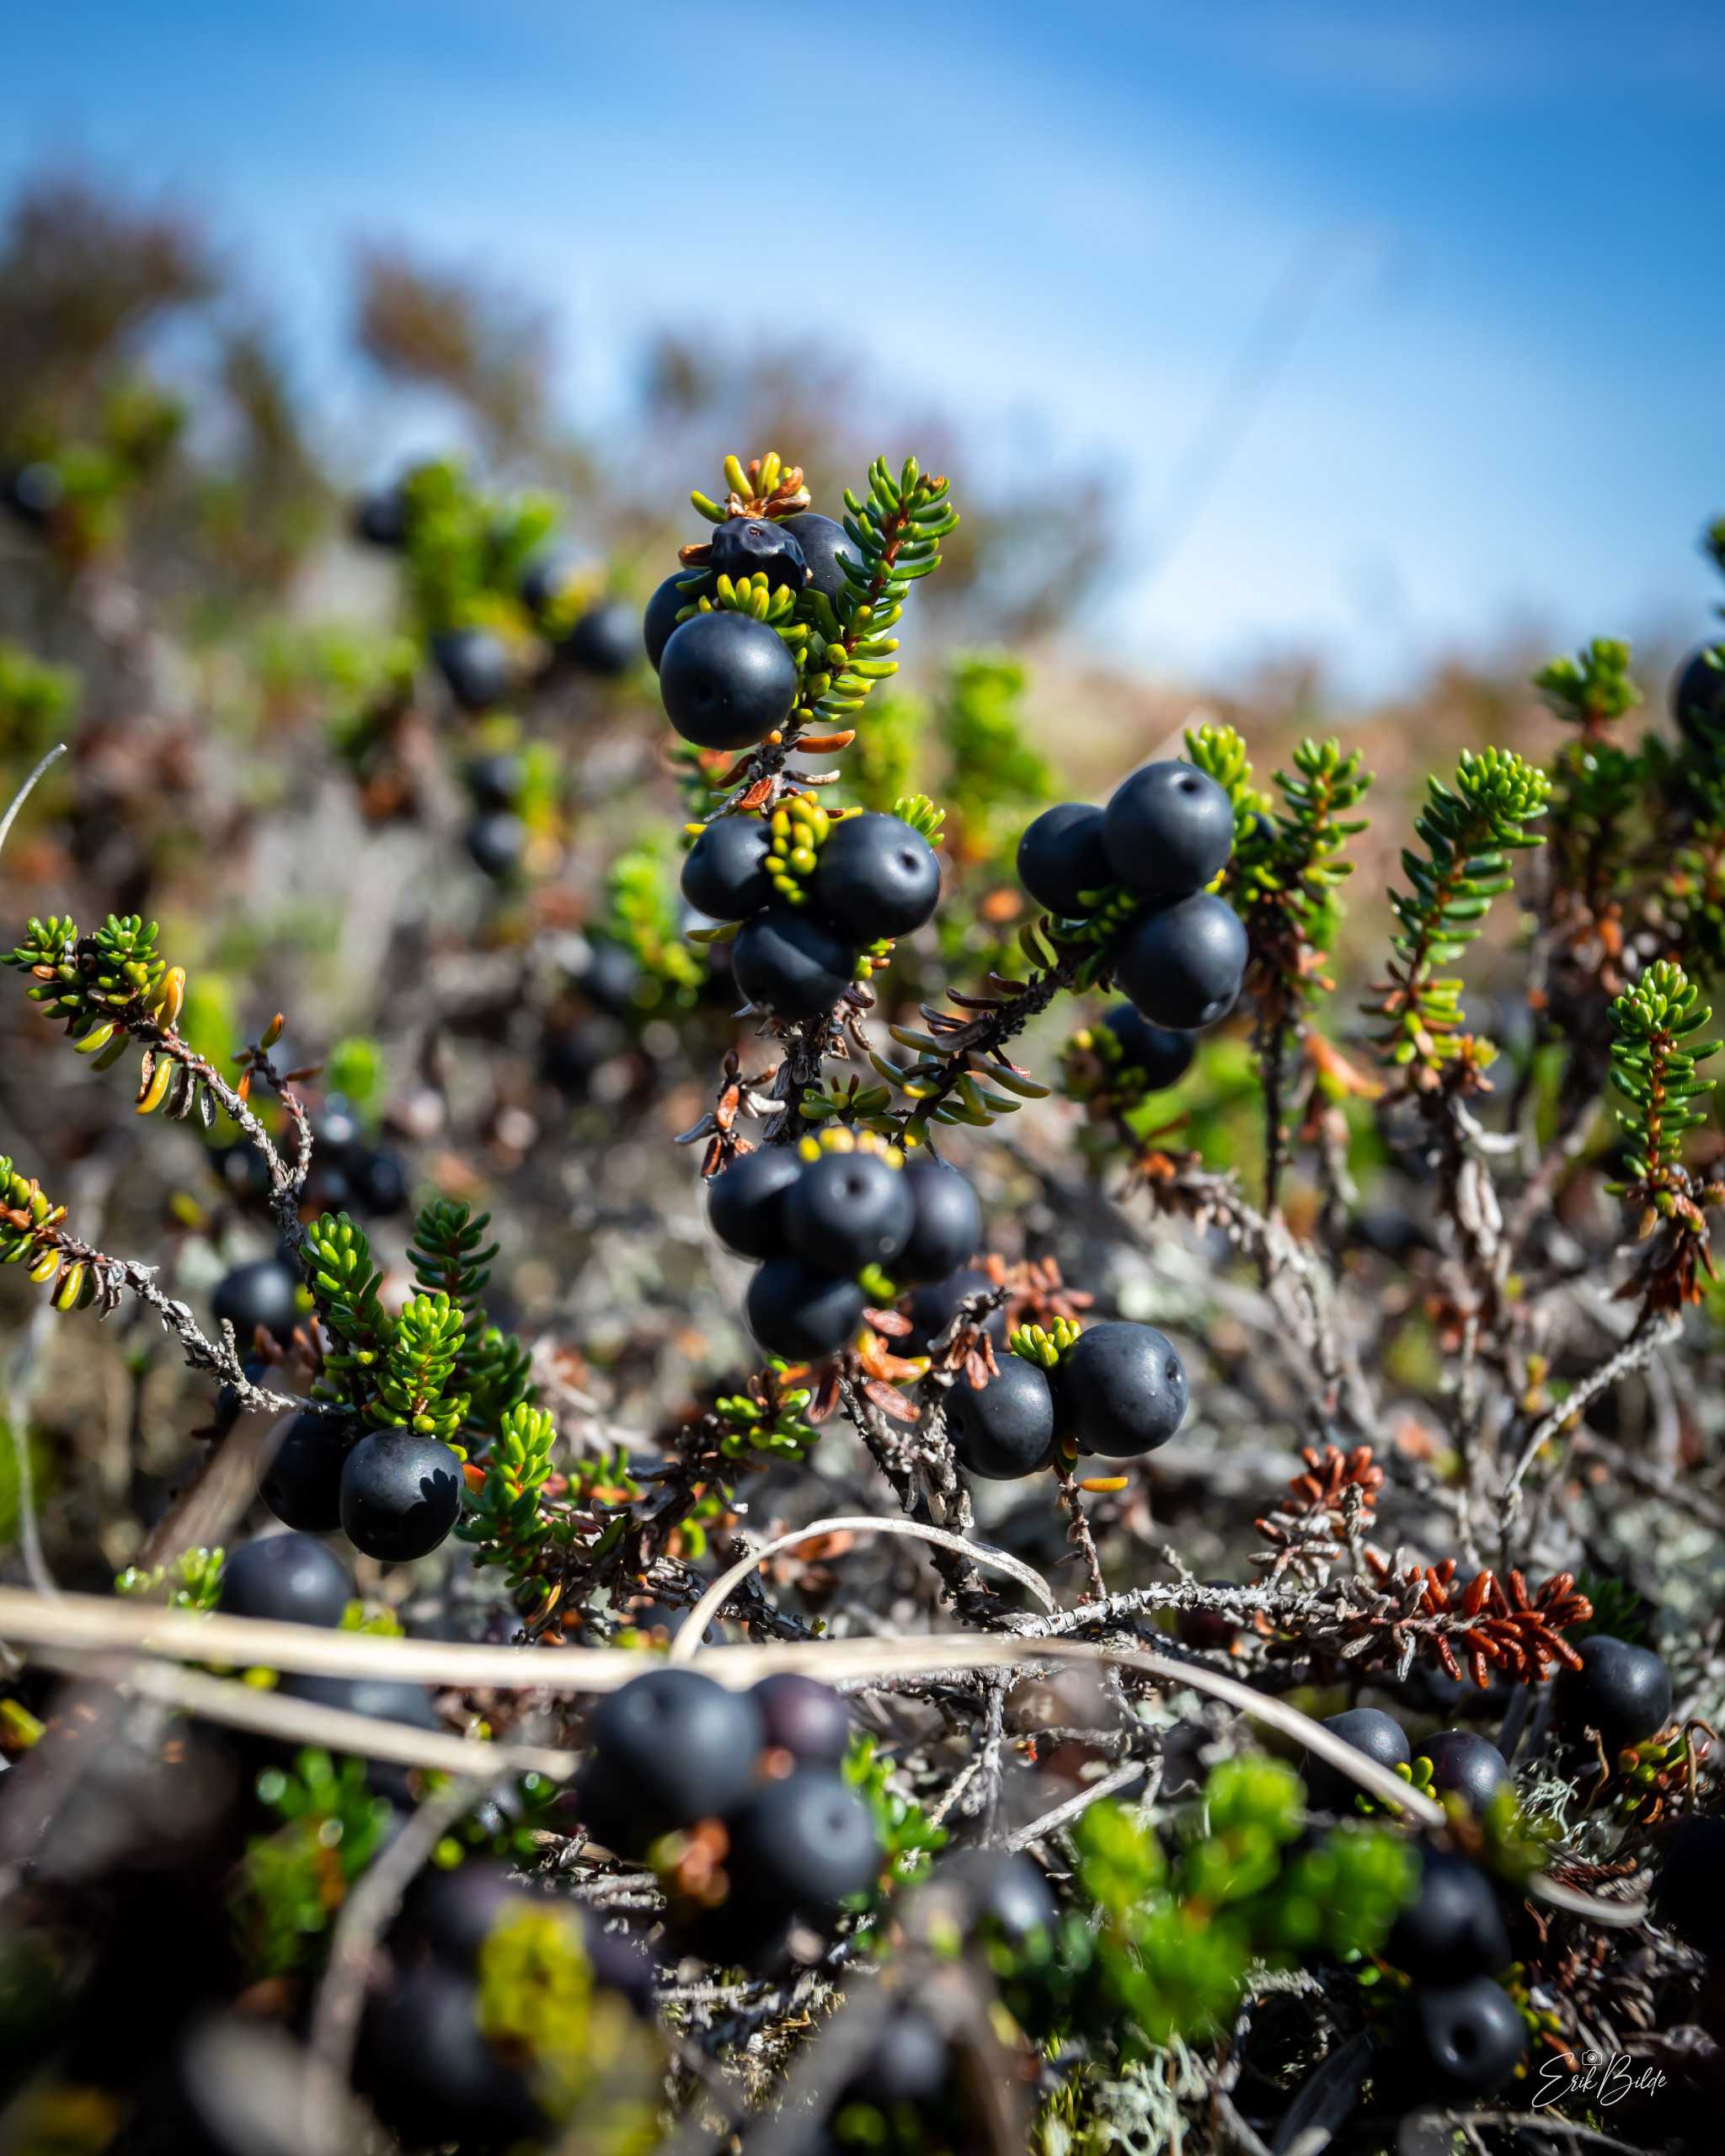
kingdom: Plantae
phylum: Tracheophyta
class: Magnoliopsida
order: Ericales
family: Ericaceae
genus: Empetrum
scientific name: Empetrum nigrum
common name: Revling
